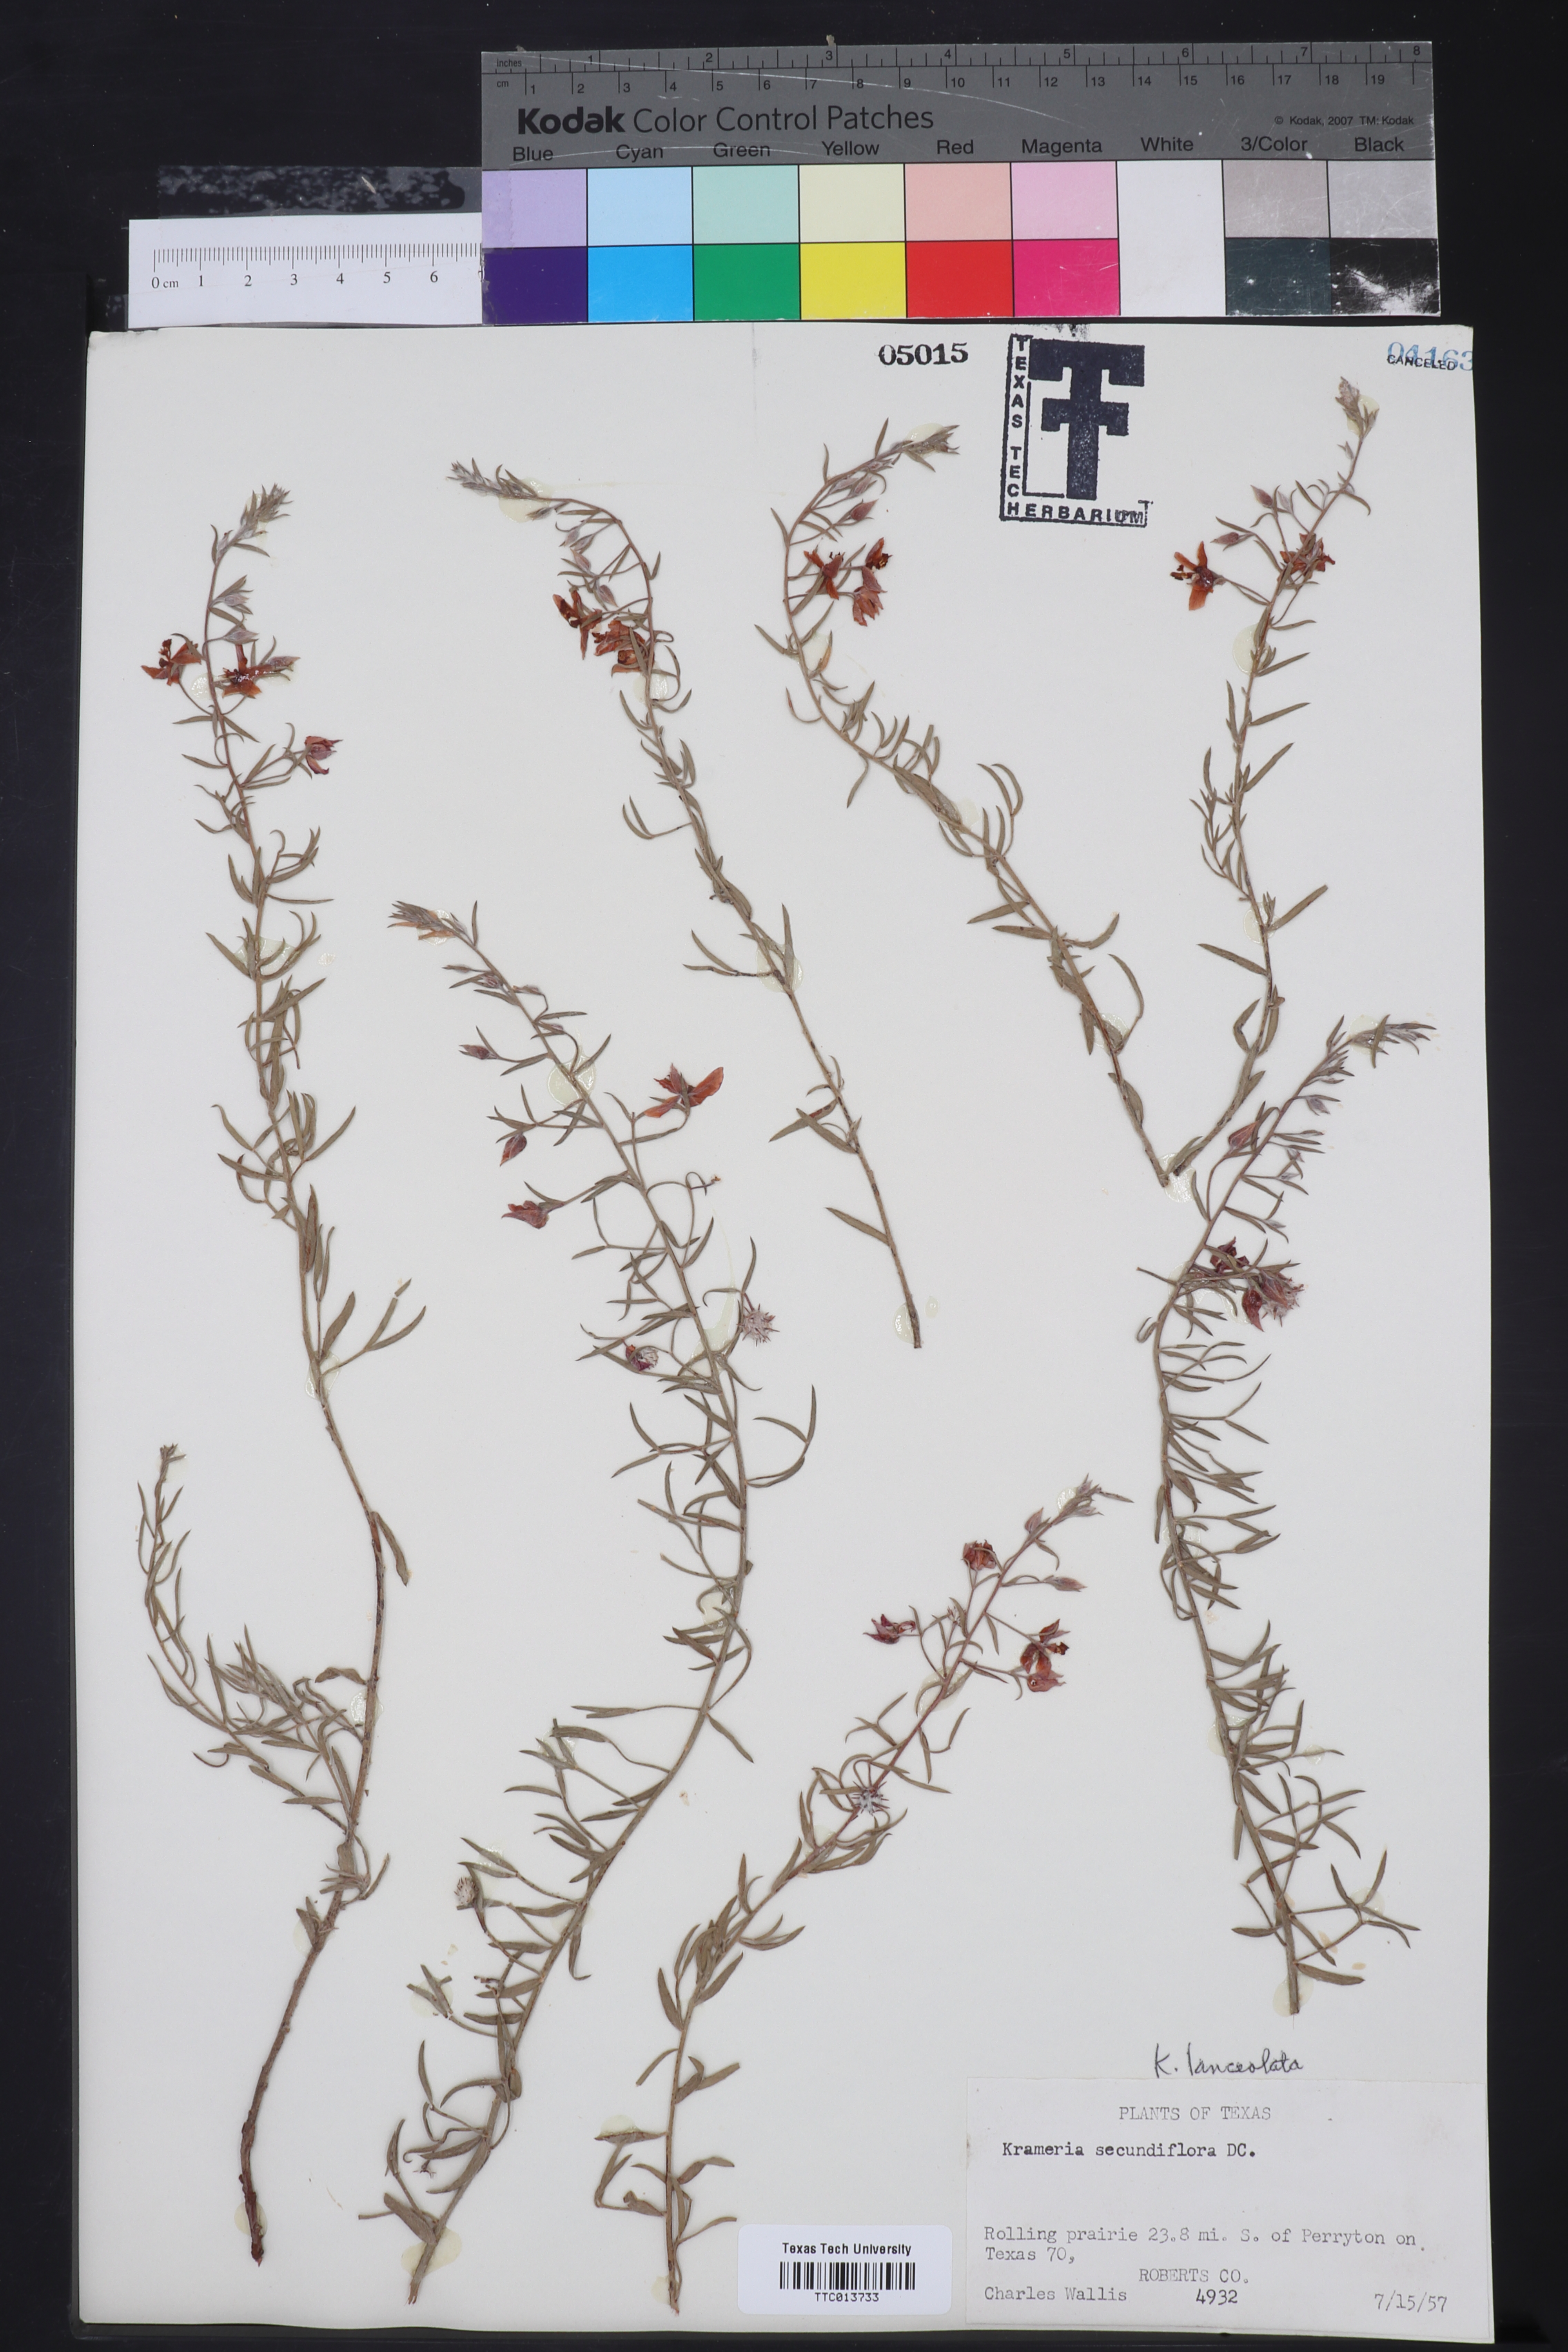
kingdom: Plantae
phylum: Tracheophyta
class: Magnoliopsida
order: Zygophyllales
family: Krameriaceae
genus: Krameria
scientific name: Krameria lanceolata
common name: Ratany
